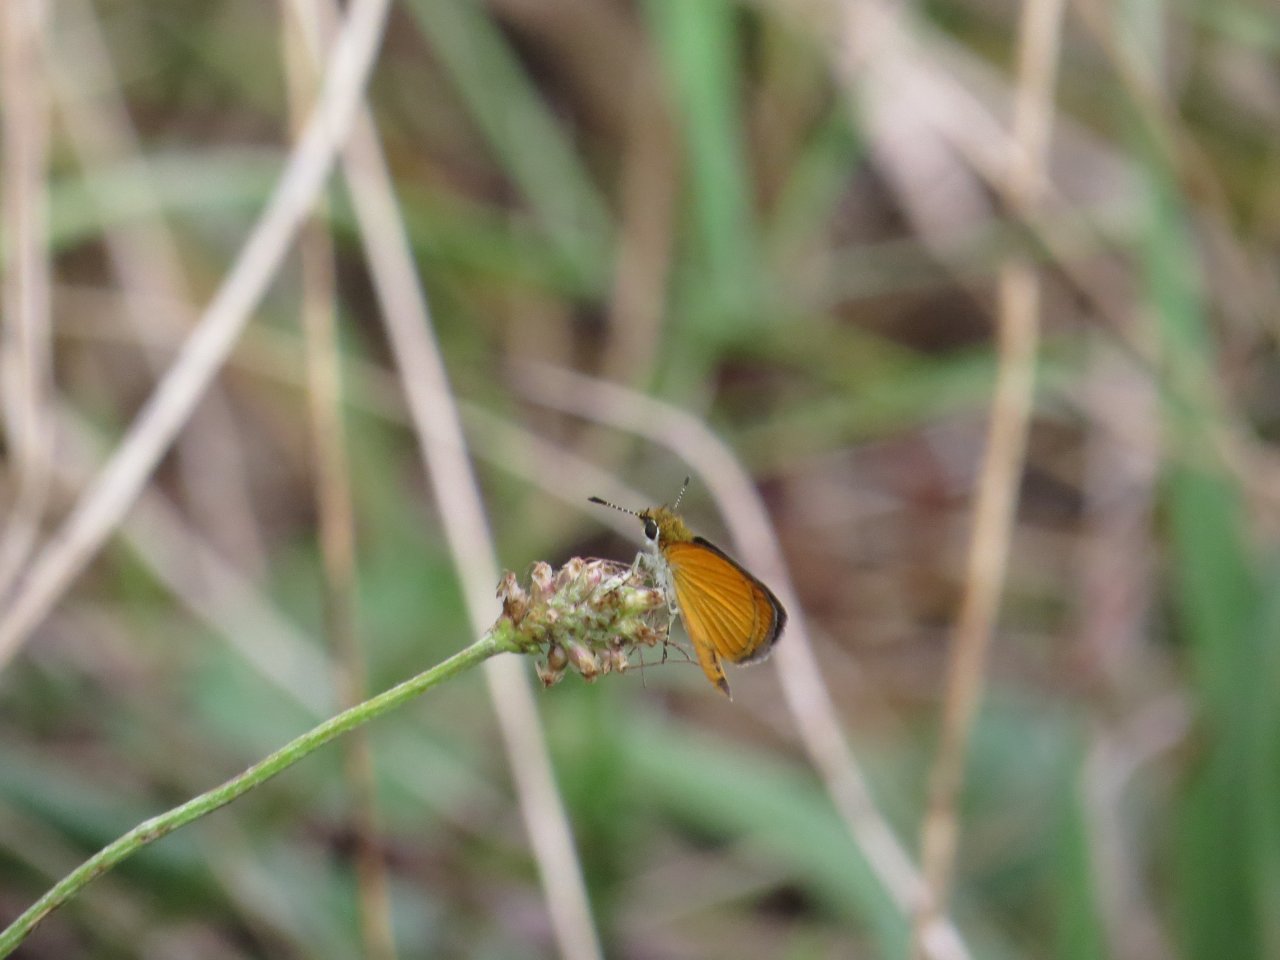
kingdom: Animalia
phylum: Arthropoda
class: Insecta
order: Lepidoptera
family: Hesperiidae
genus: Ancyloxypha
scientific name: Ancyloxypha numitor
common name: Least Skipper
